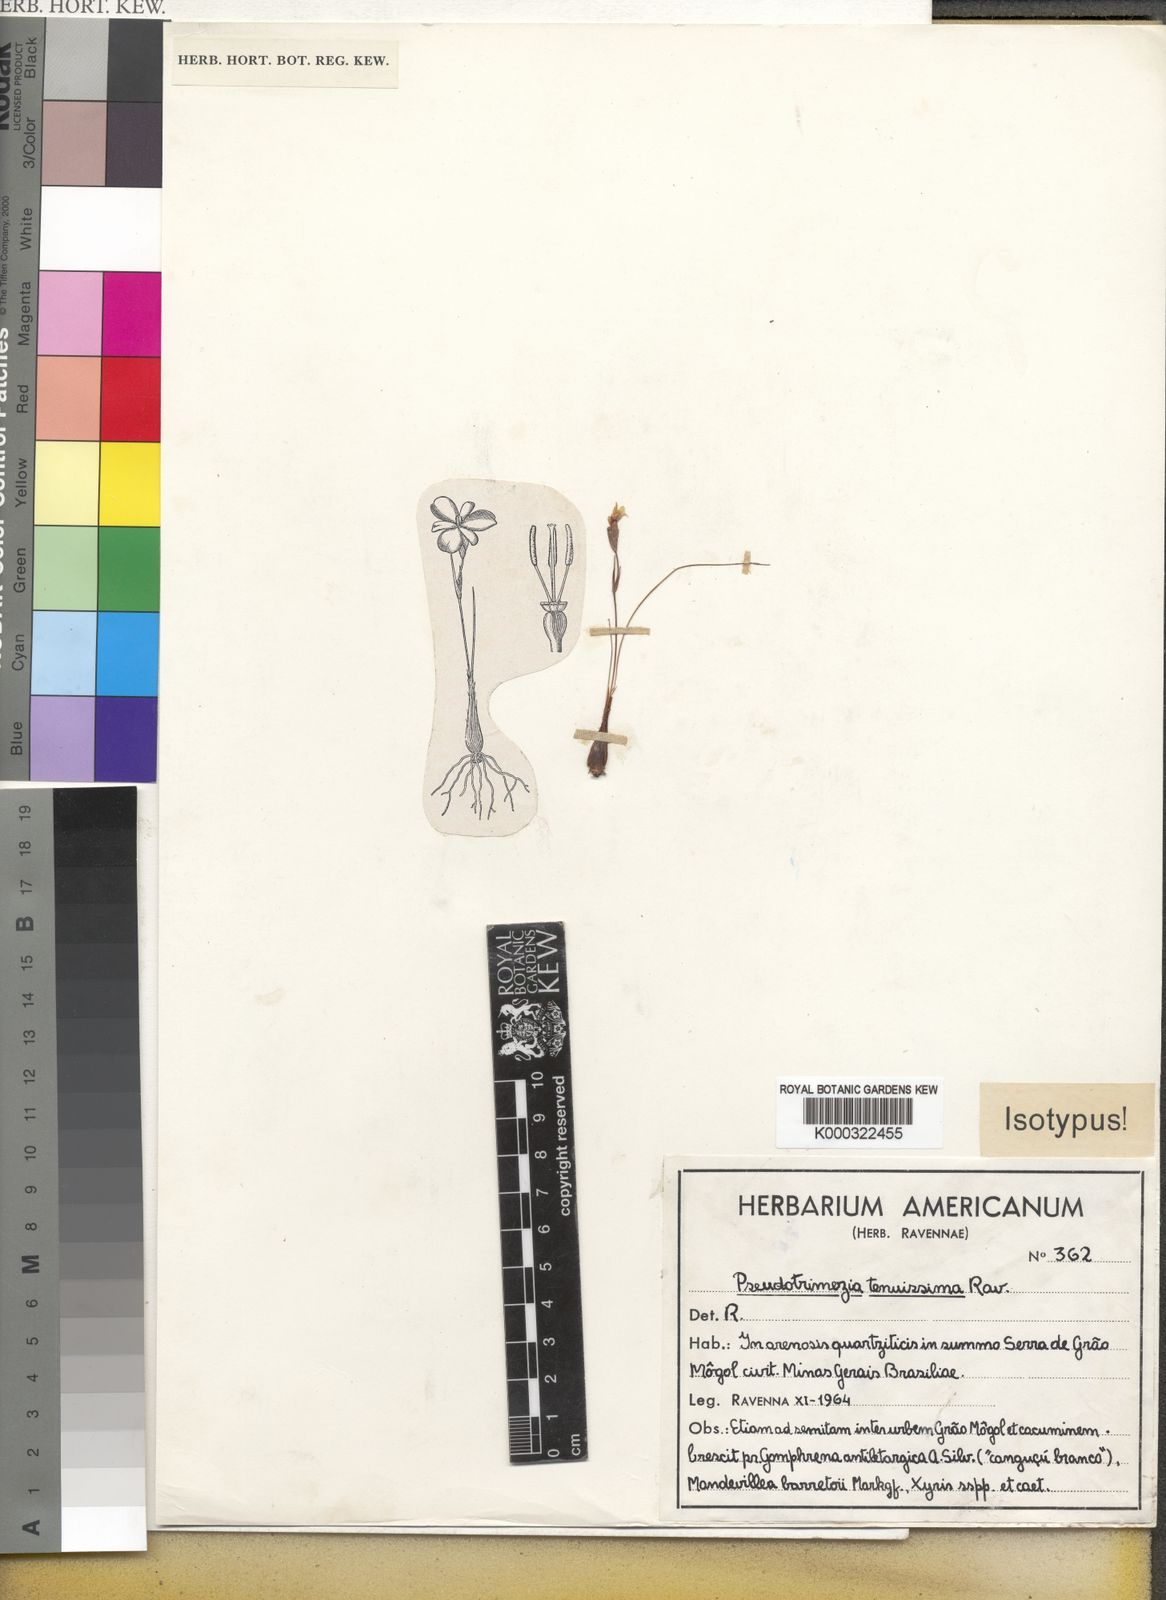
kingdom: Plantae
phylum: Tracheophyta
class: Liliopsida
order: Asparagales
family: Iridaceae
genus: Trimezia
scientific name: Trimezia tenuissima
